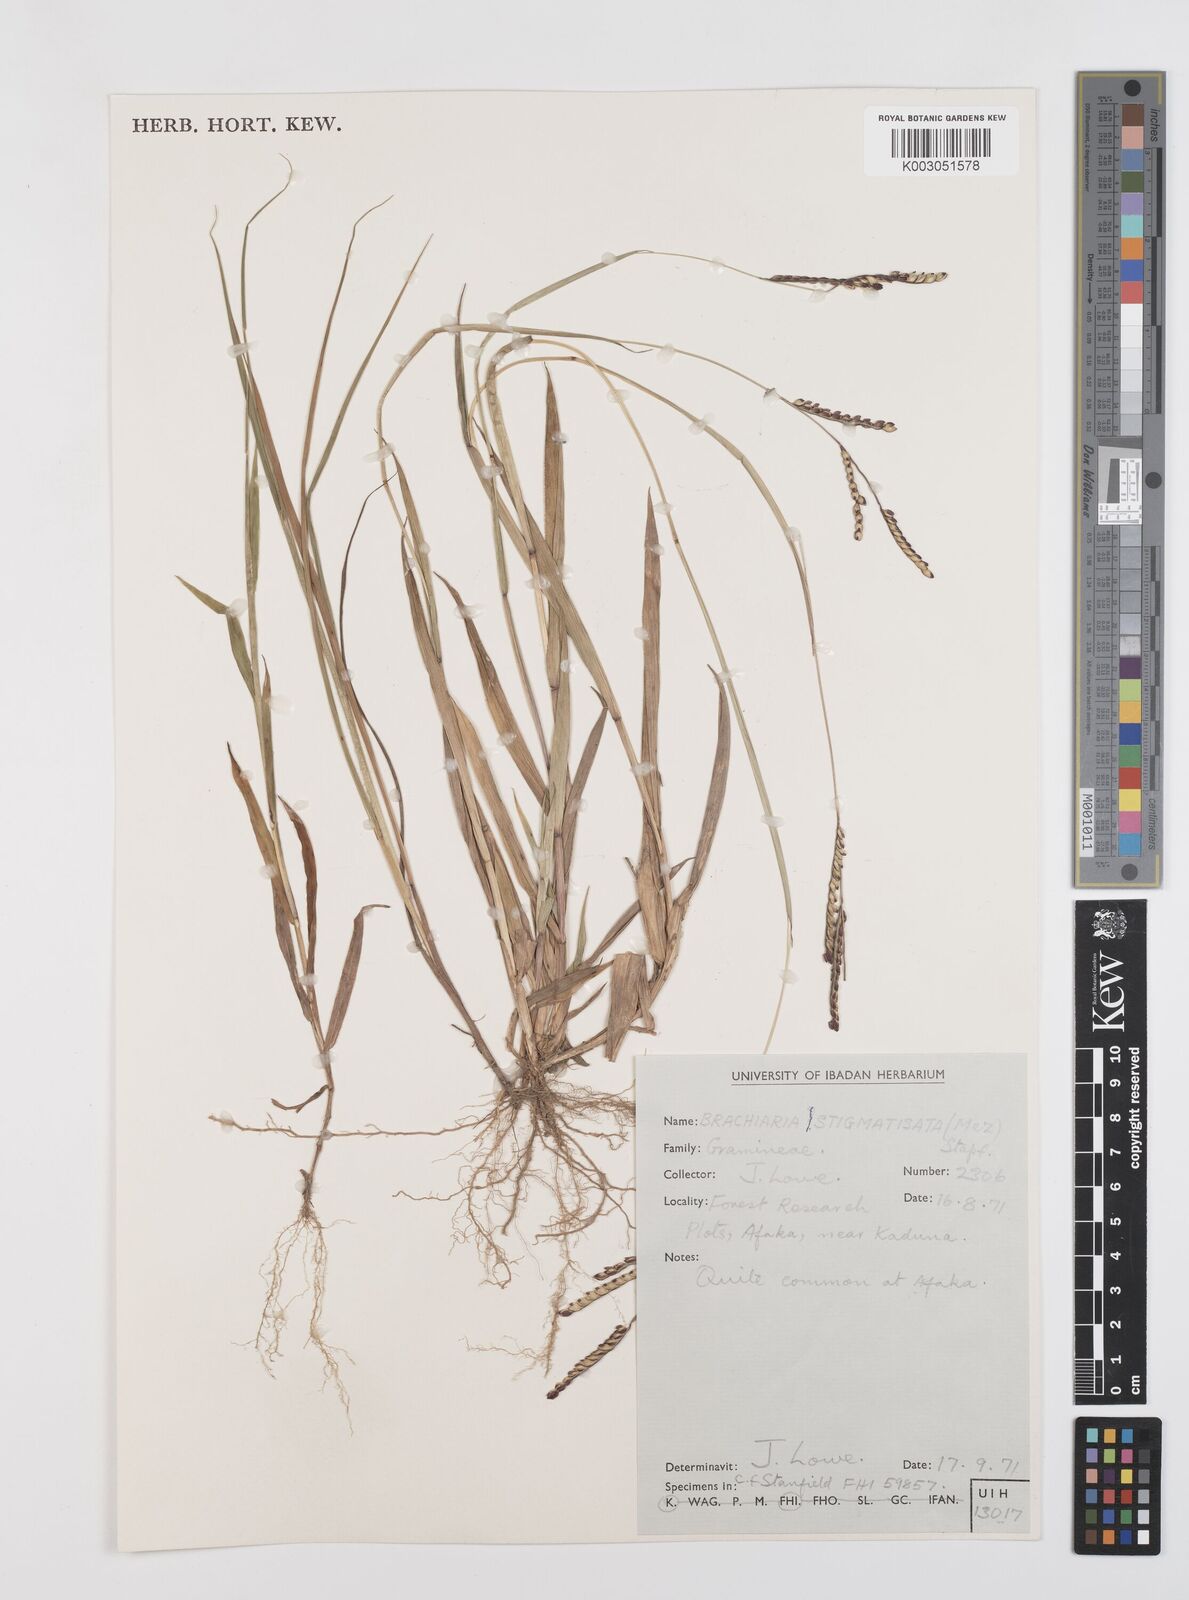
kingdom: Plantae
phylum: Tracheophyta
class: Liliopsida
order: Poales
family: Poaceae
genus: Urochloa
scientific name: Urochloa stigmatisata
